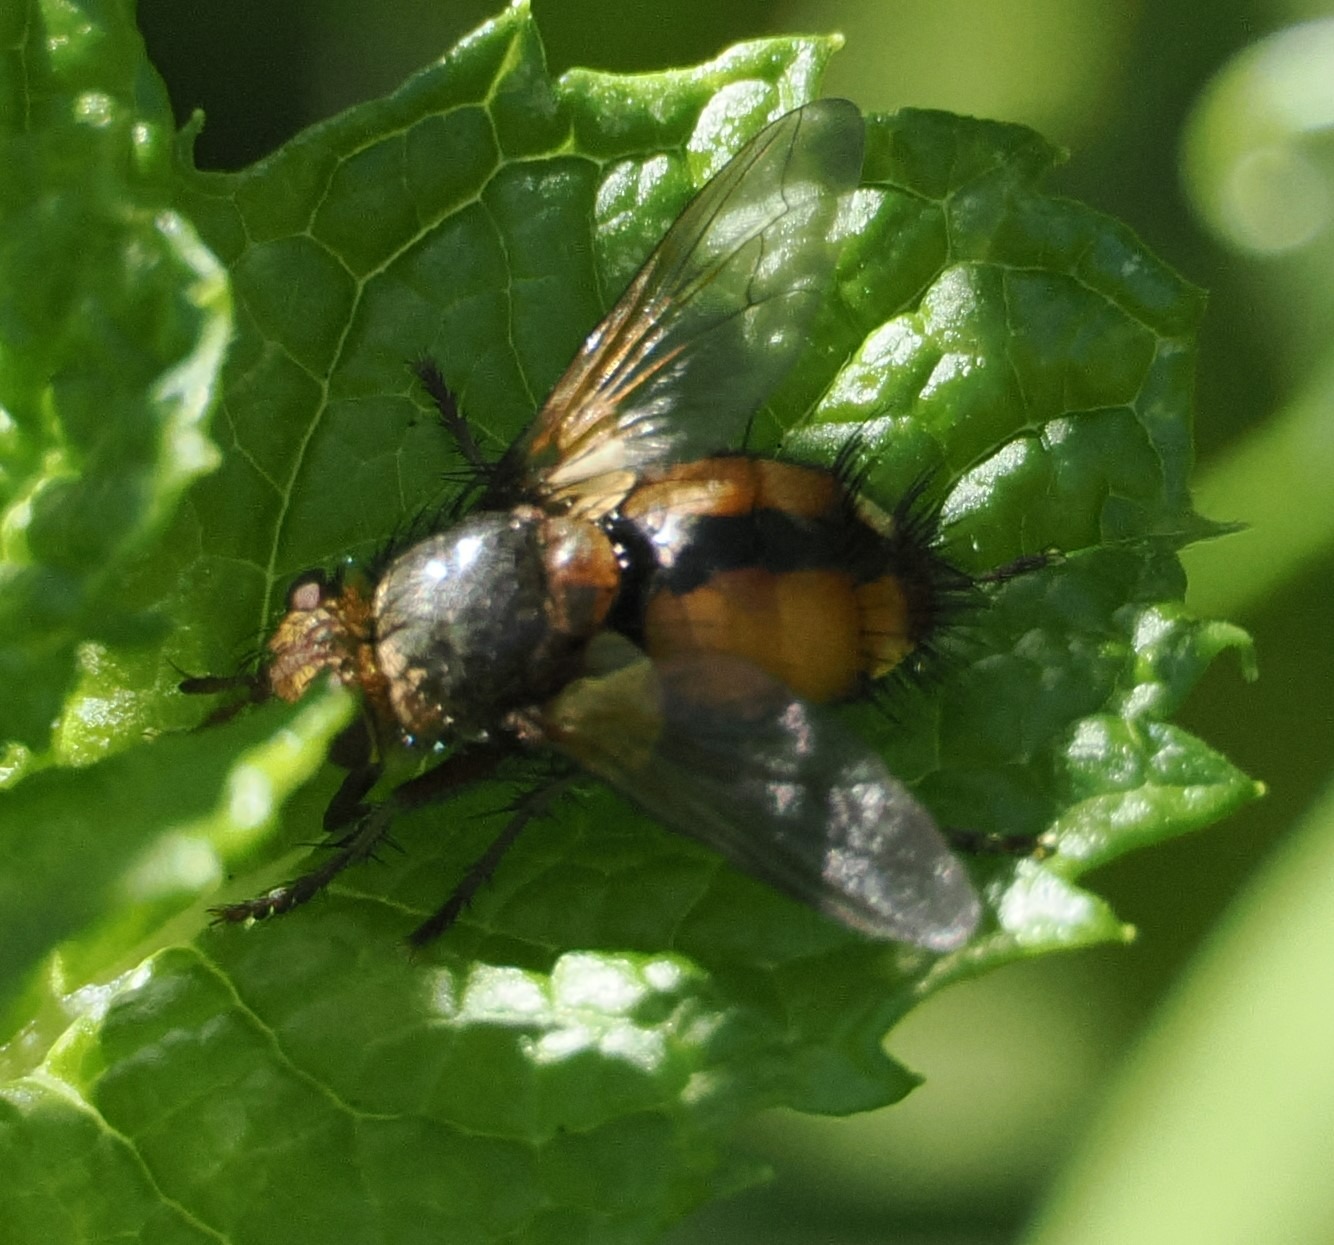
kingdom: Animalia
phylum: Arthropoda
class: Insecta
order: Diptera
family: Tachinidae
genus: Tachina
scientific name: Tachina fera
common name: Mellemfluen oskar
